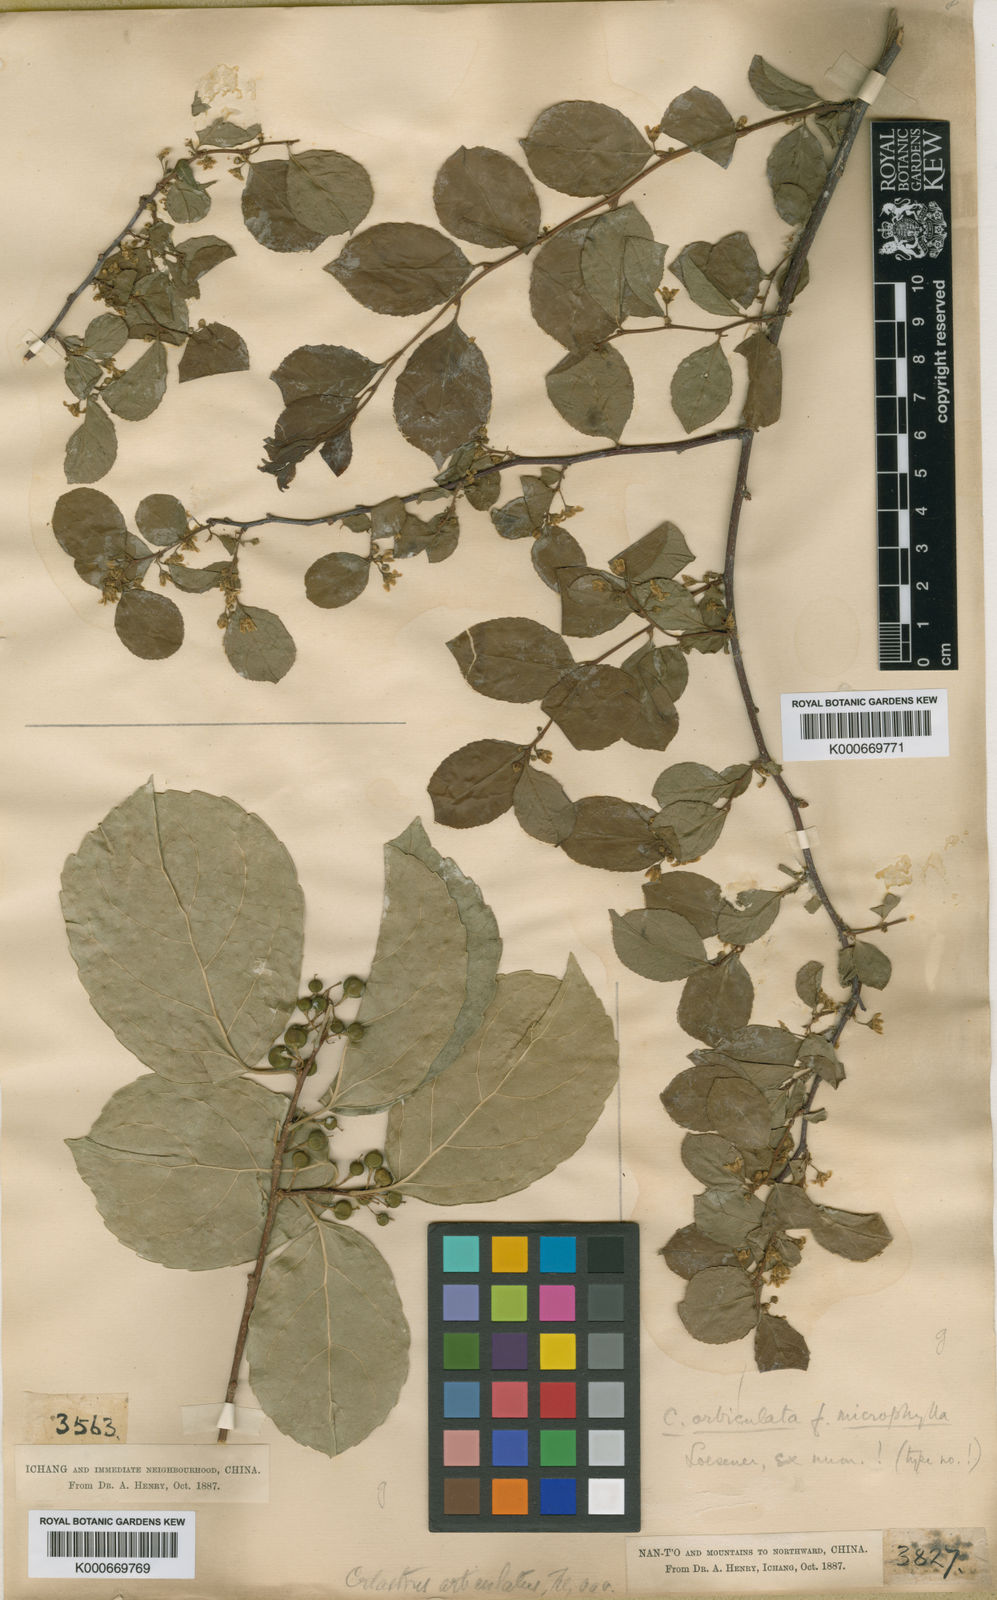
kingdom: Plantae
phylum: Tracheophyta
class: Magnoliopsida
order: Celastrales
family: Celastraceae
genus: Celastrus
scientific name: Celastrus orbiculatus
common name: Oriental bittersweet
